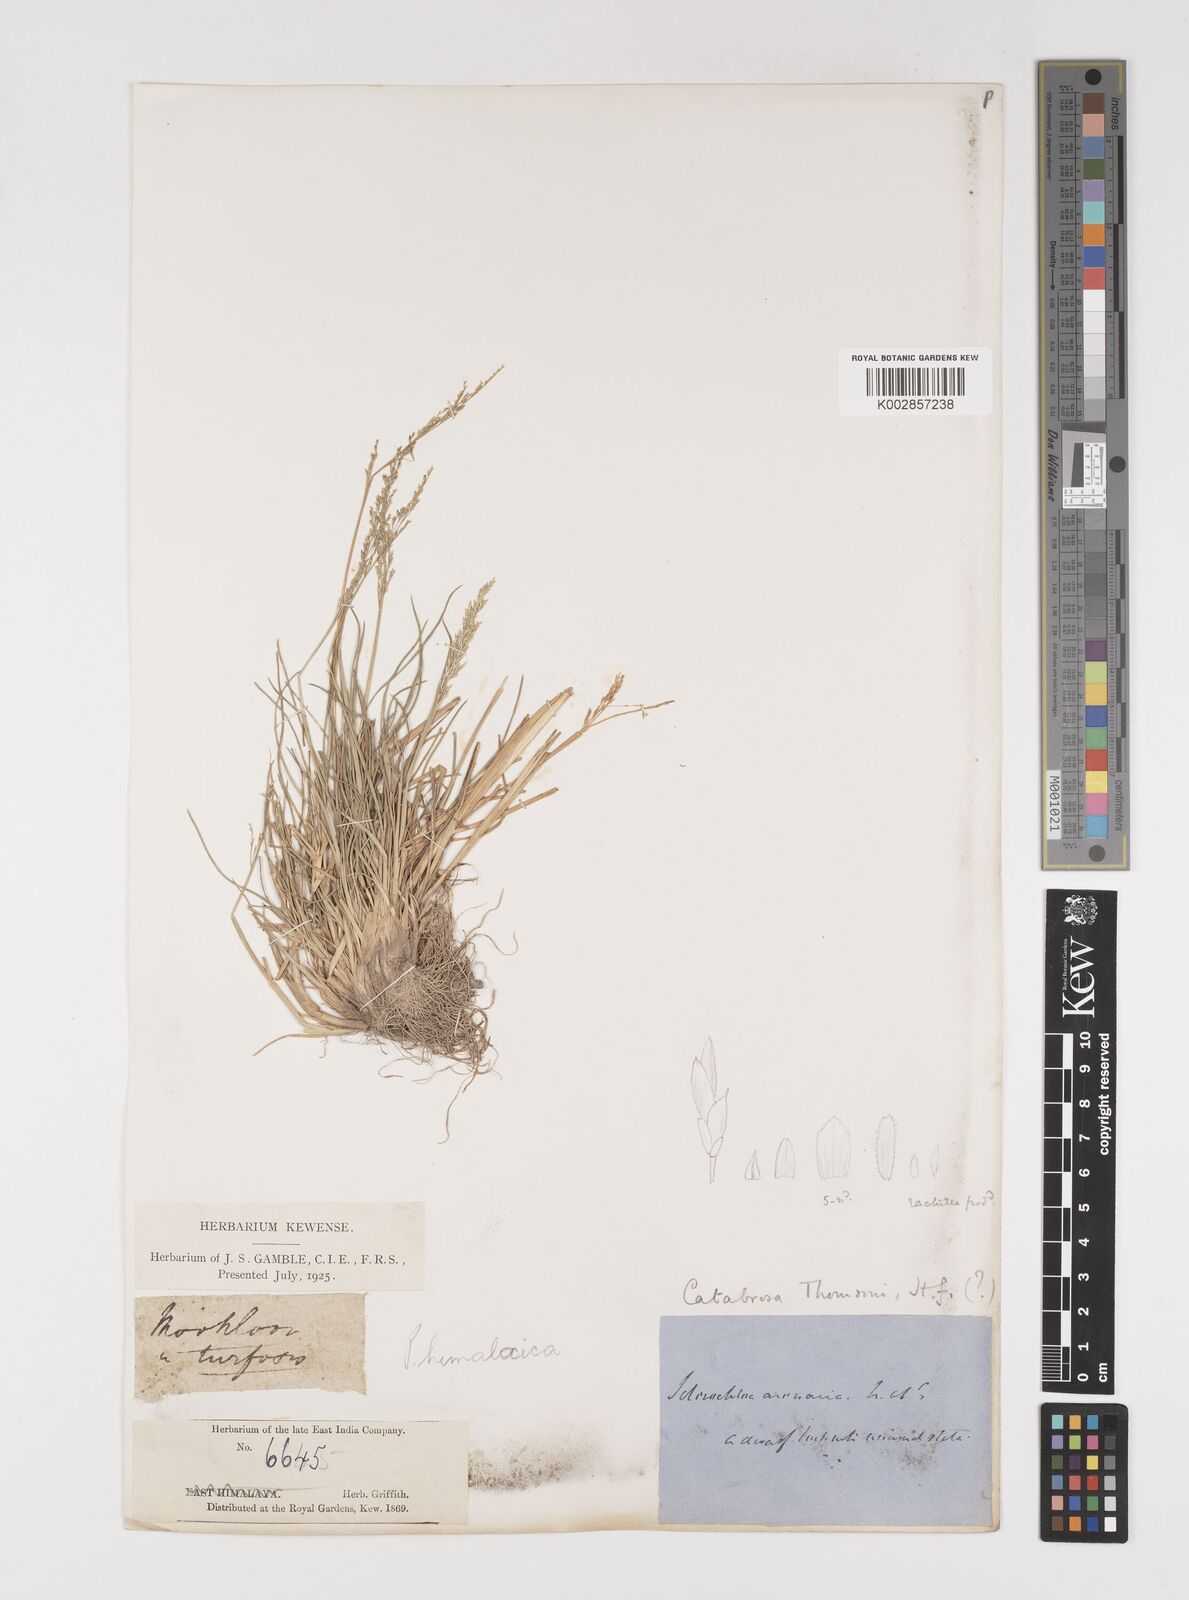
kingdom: Plantae
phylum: Tracheophyta
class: Liliopsida
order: Poales
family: Poaceae
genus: Puccinellia
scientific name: Puccinellia distans
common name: Weeping alkaligrass
